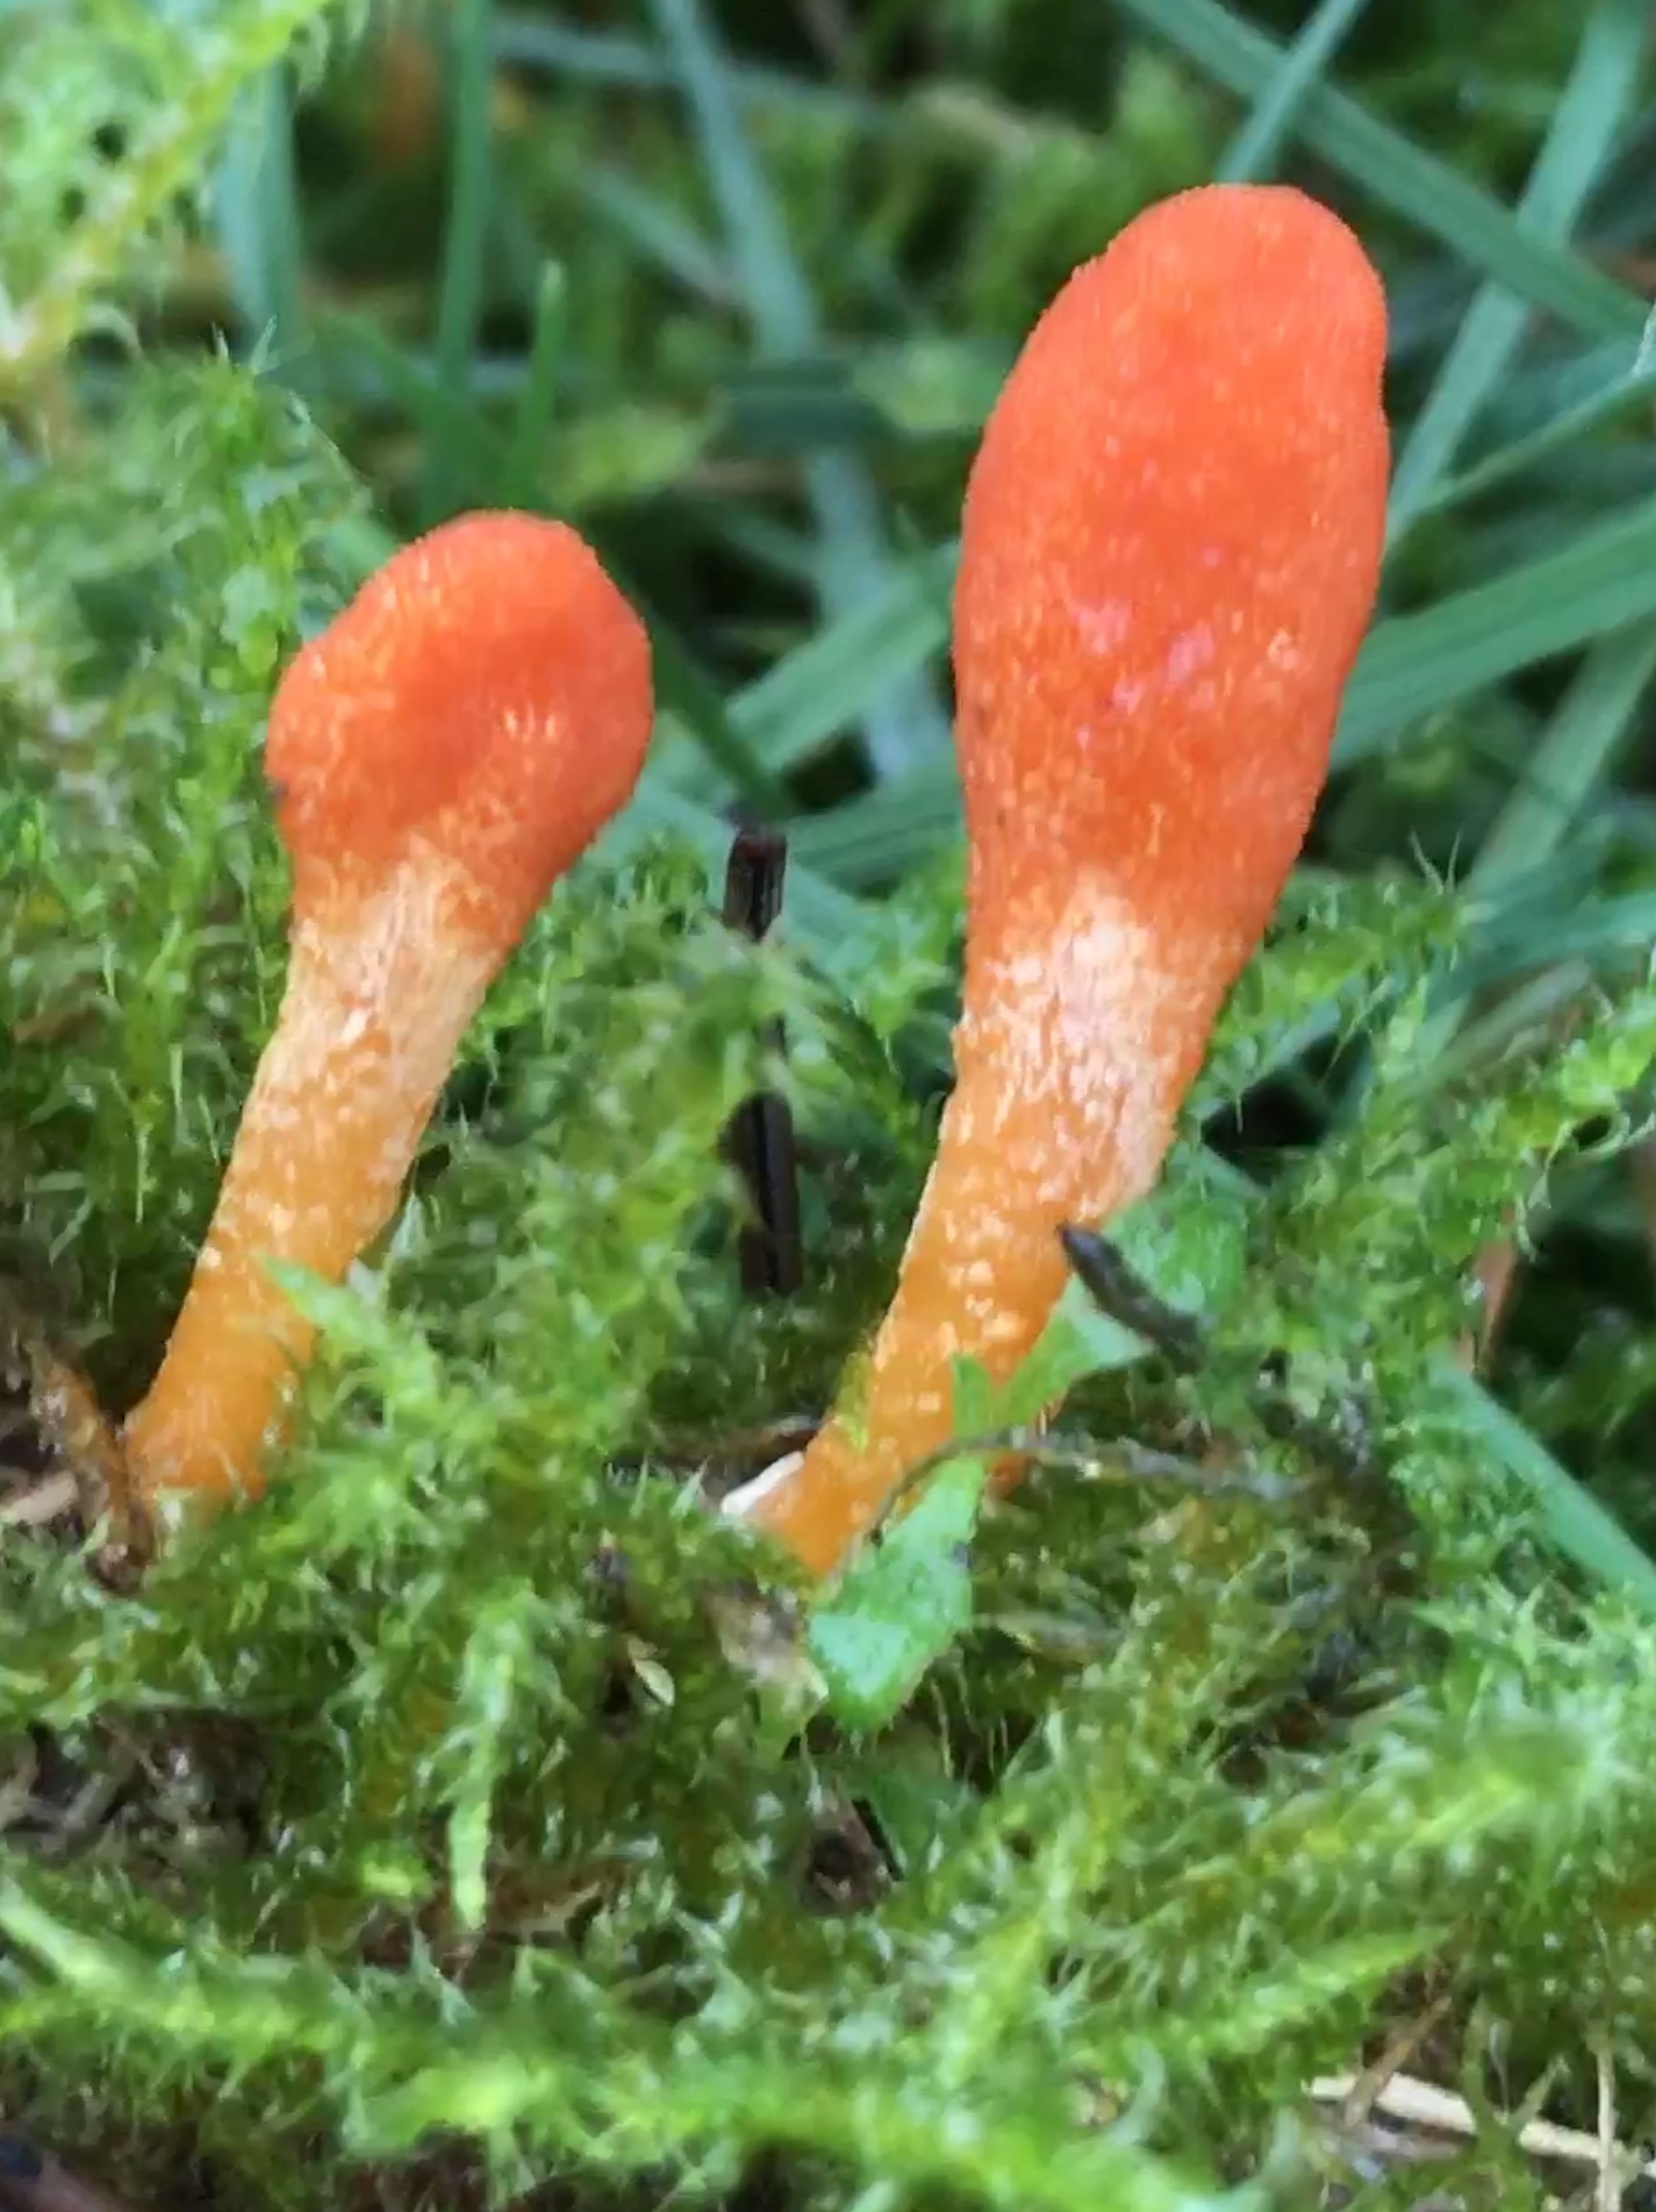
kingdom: Fungi
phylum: Ascomycota
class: Sordariomycetes
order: Hypocreales
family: Cordycipitaceae
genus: Cordyceps
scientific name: Cordyceps militaris
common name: puppe-snyltekølle
